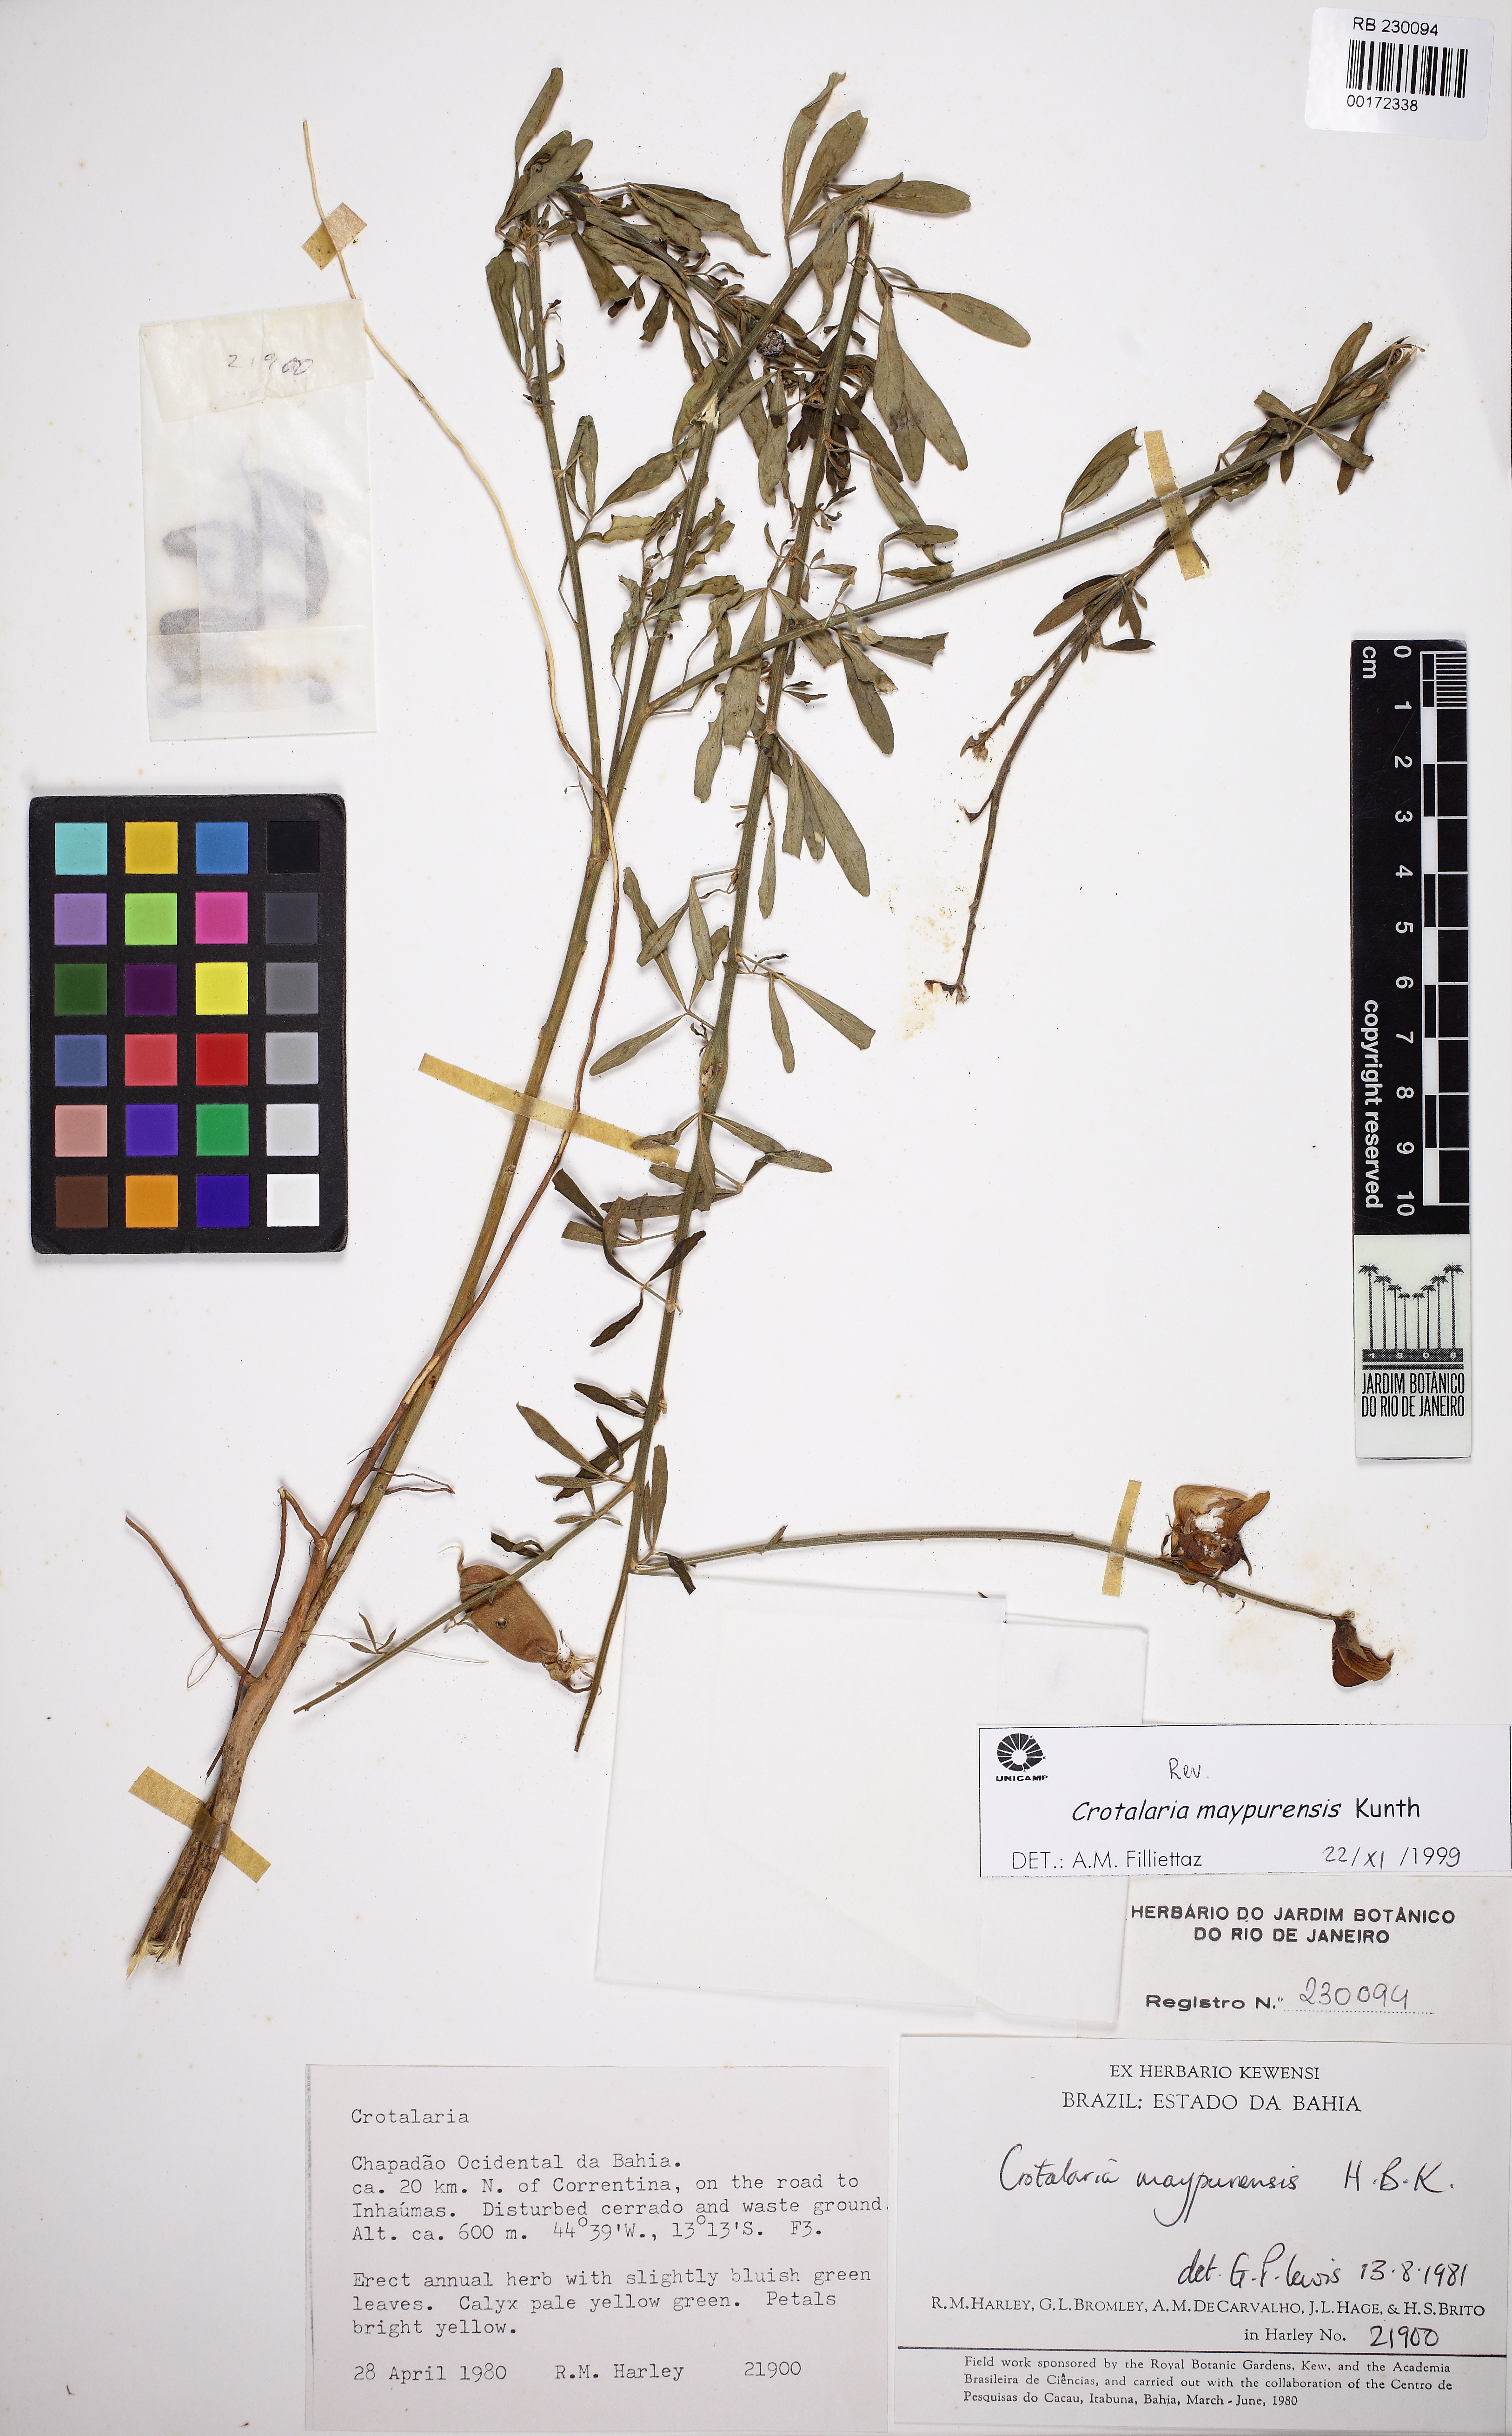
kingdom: Plantae
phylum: Tracheophyta
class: Magnoliopsida
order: Fabales
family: Fabaceae
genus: Crotalaria
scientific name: Crotalaria maypurensis
